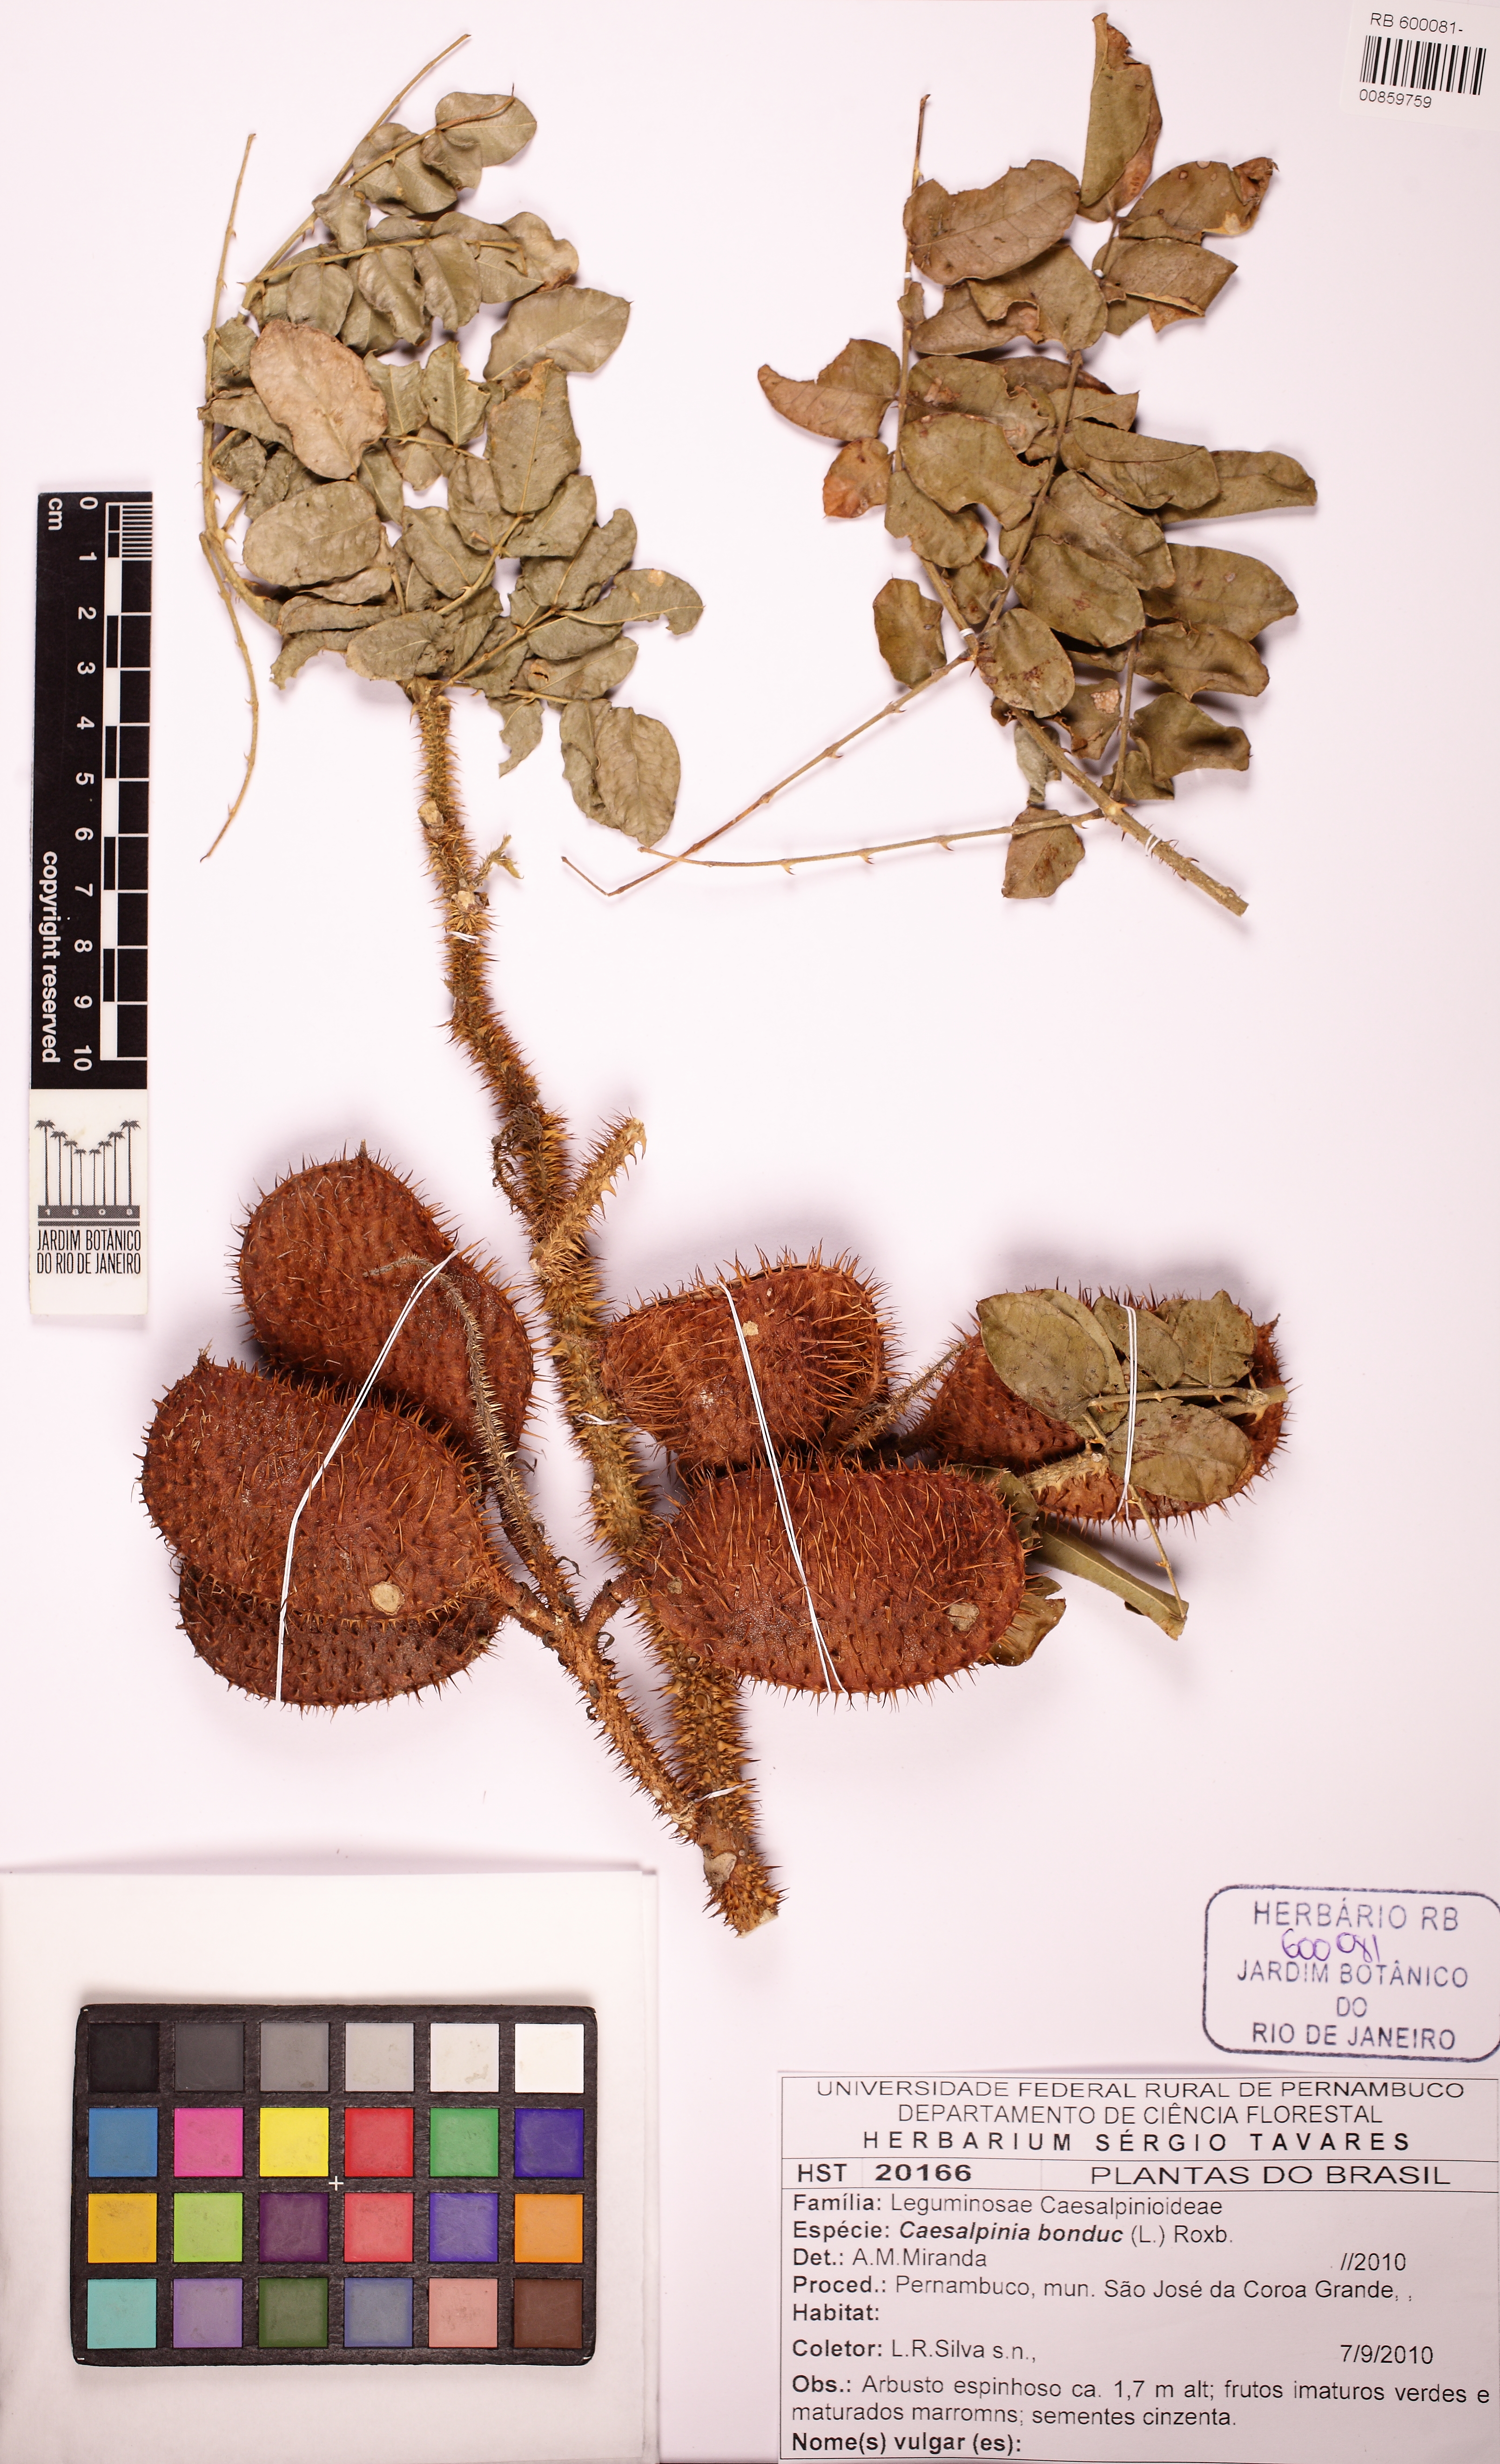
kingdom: Plantae
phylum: Tracheophyta
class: Magnoliopsida
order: Fabales
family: Fabaceae
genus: Guilandina
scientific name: Guilandina bonduc
